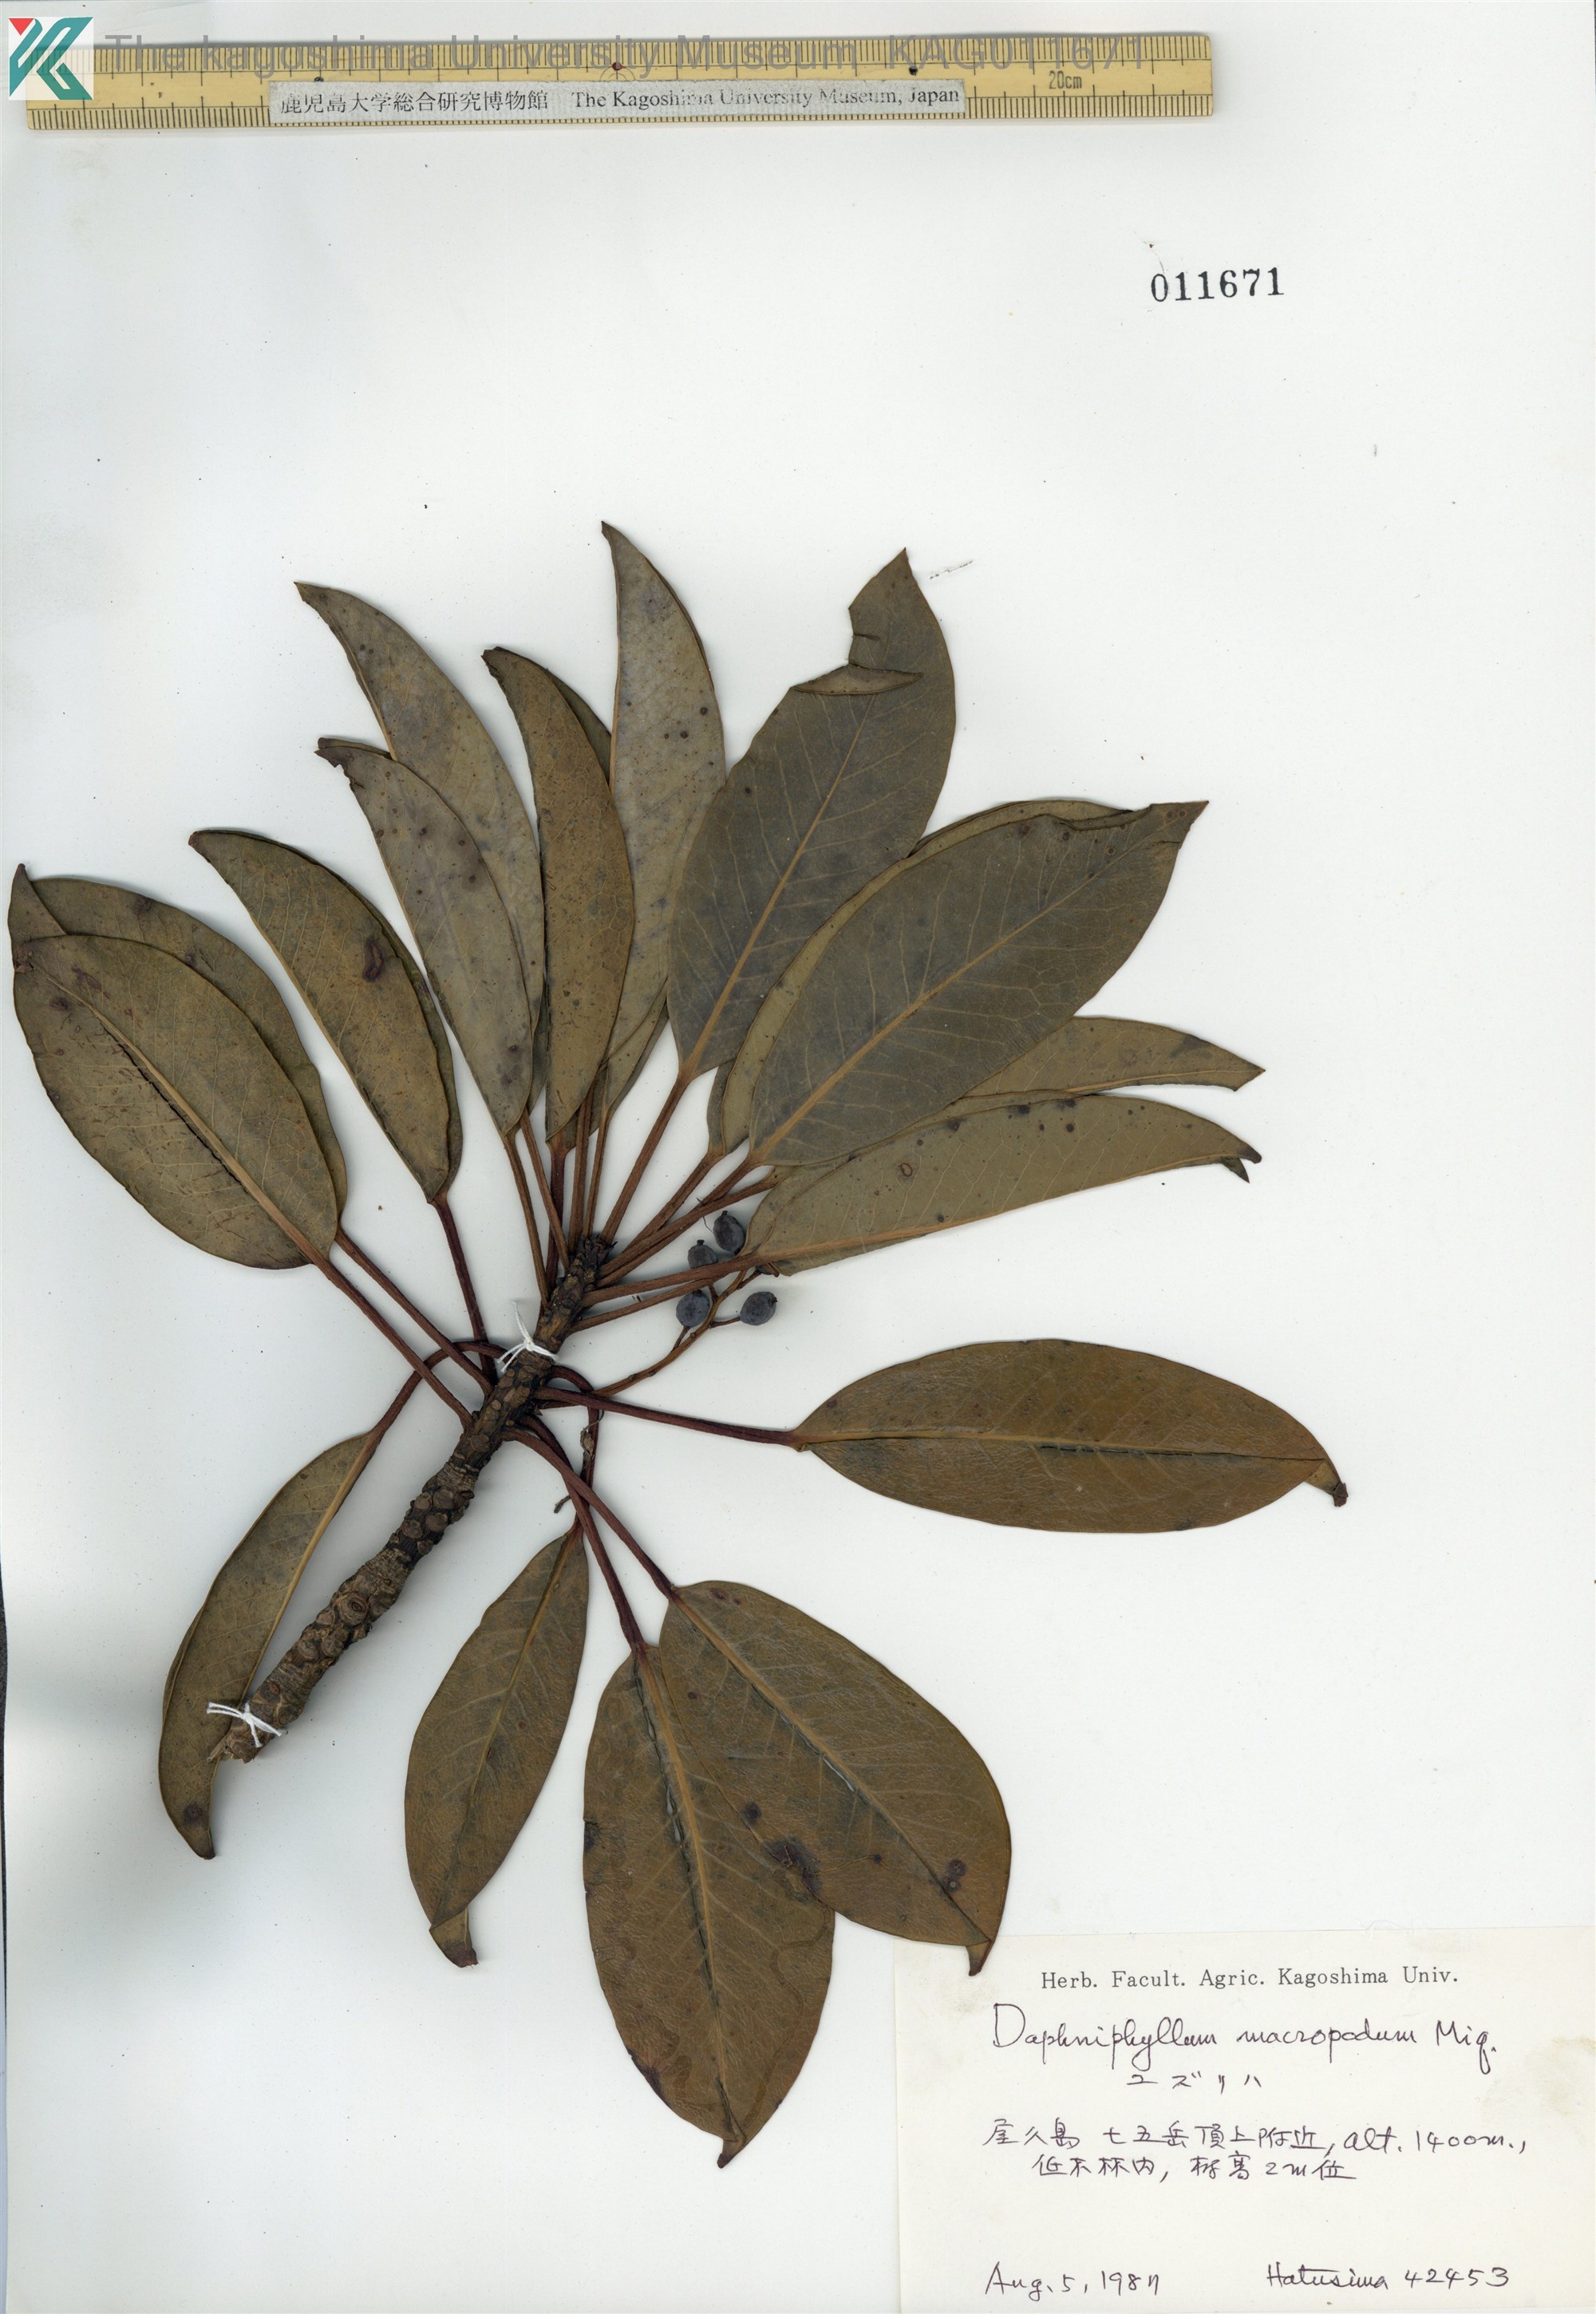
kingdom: Plantae
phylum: Tracheophyta
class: Magnoliopsida
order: Saxifragales
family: Daphniphyllaceae
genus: Daphniphyllum
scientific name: Daphniphyllum macropodum
